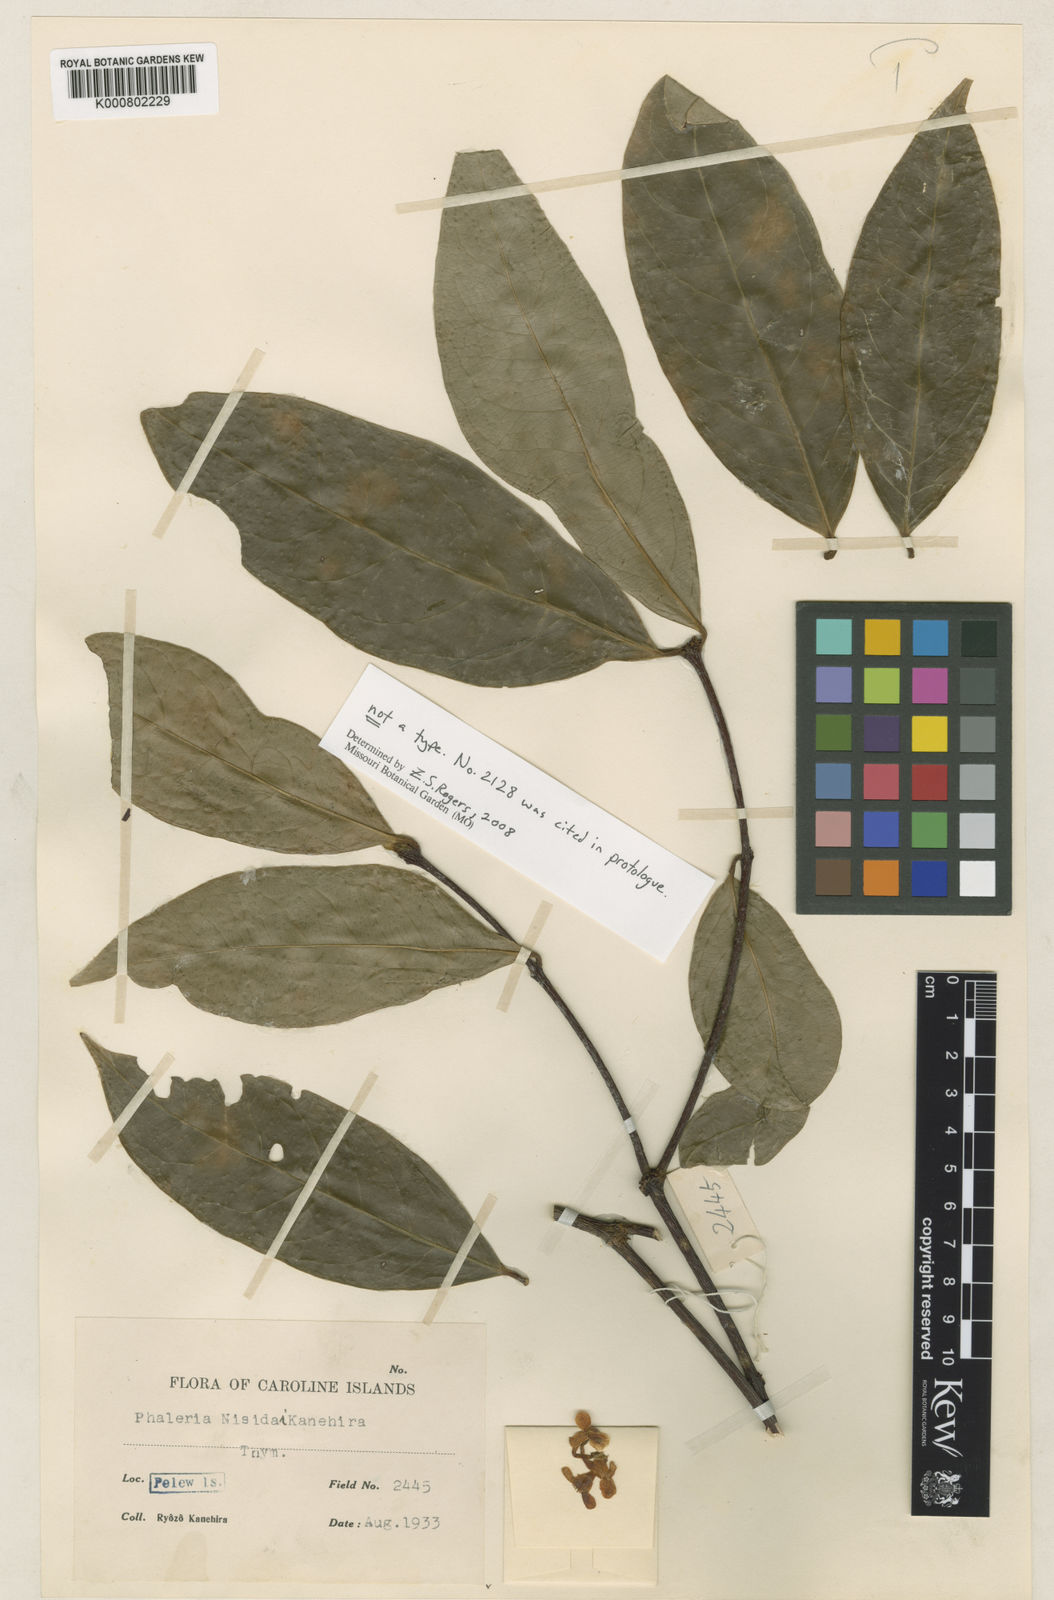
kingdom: Plantae
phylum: Tracheophyta
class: Magnoliopsida
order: Malvales
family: Thymelaeaceae
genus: Phaleria
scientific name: Phaleria
